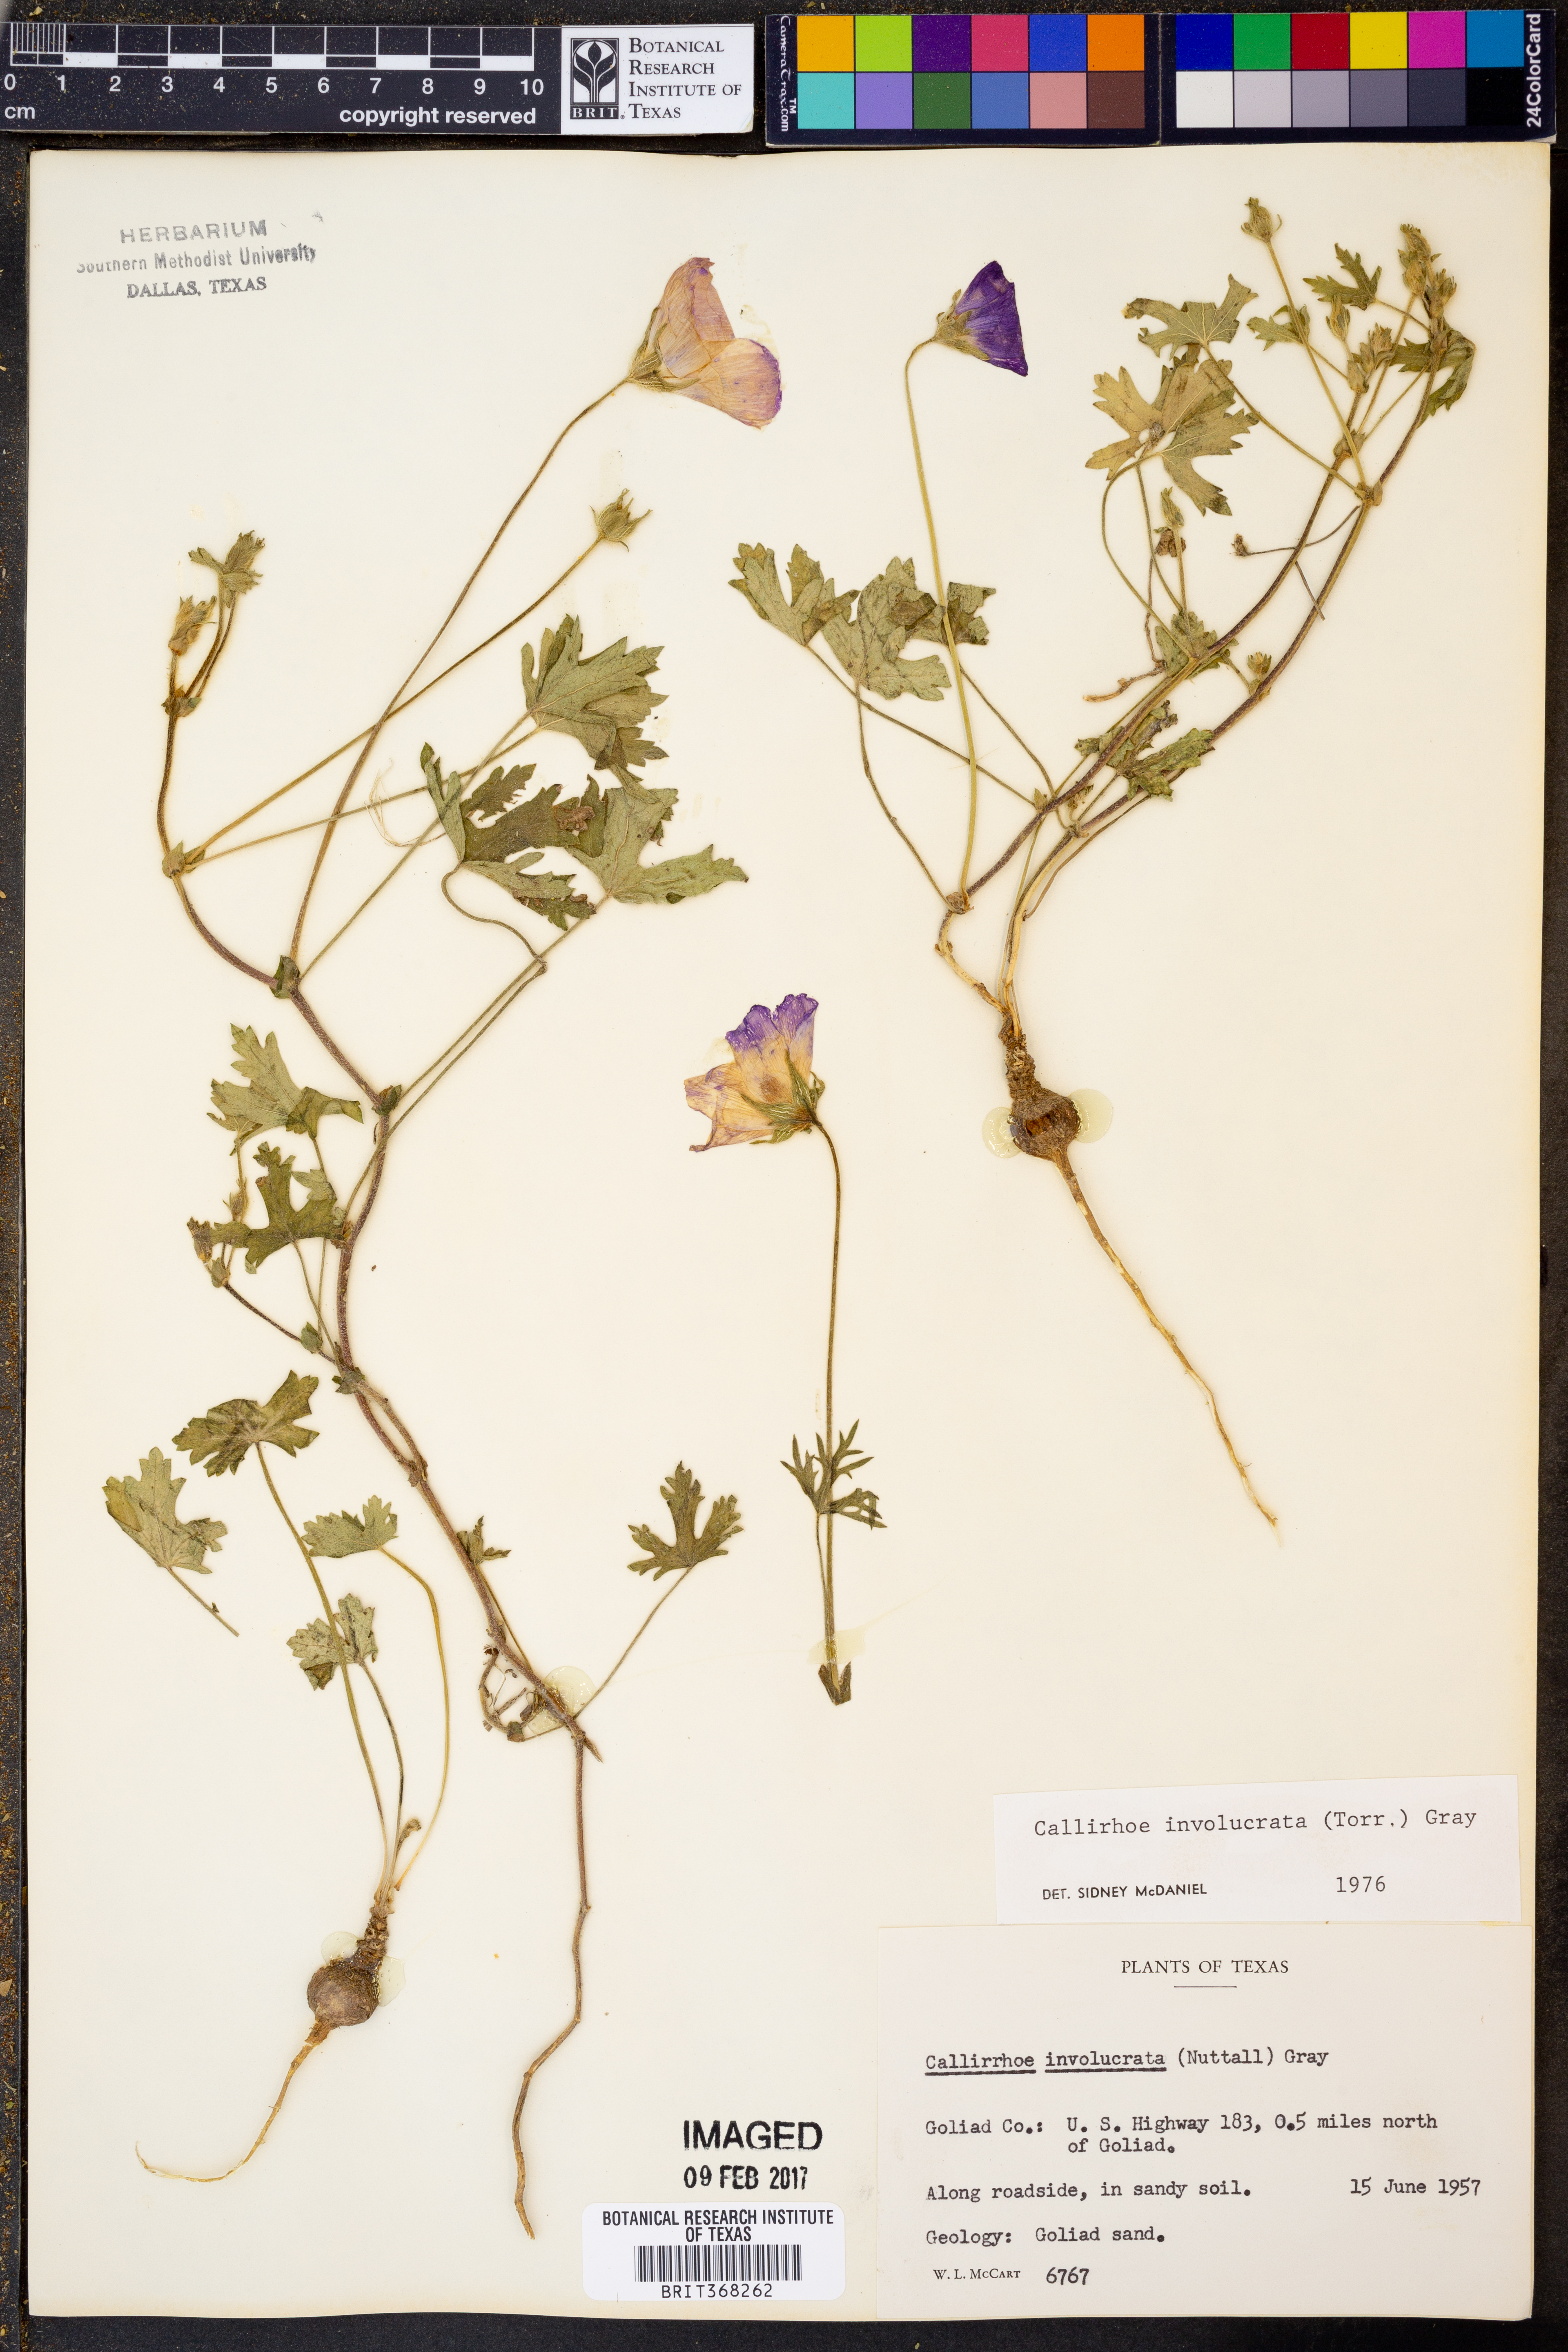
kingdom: Plantae
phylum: Tracheophyta
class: Magnoliopsida
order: Malvales
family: Malvaceae
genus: Callirhoe
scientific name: Callirhoe involucrata
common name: Purple poppy-mallow
